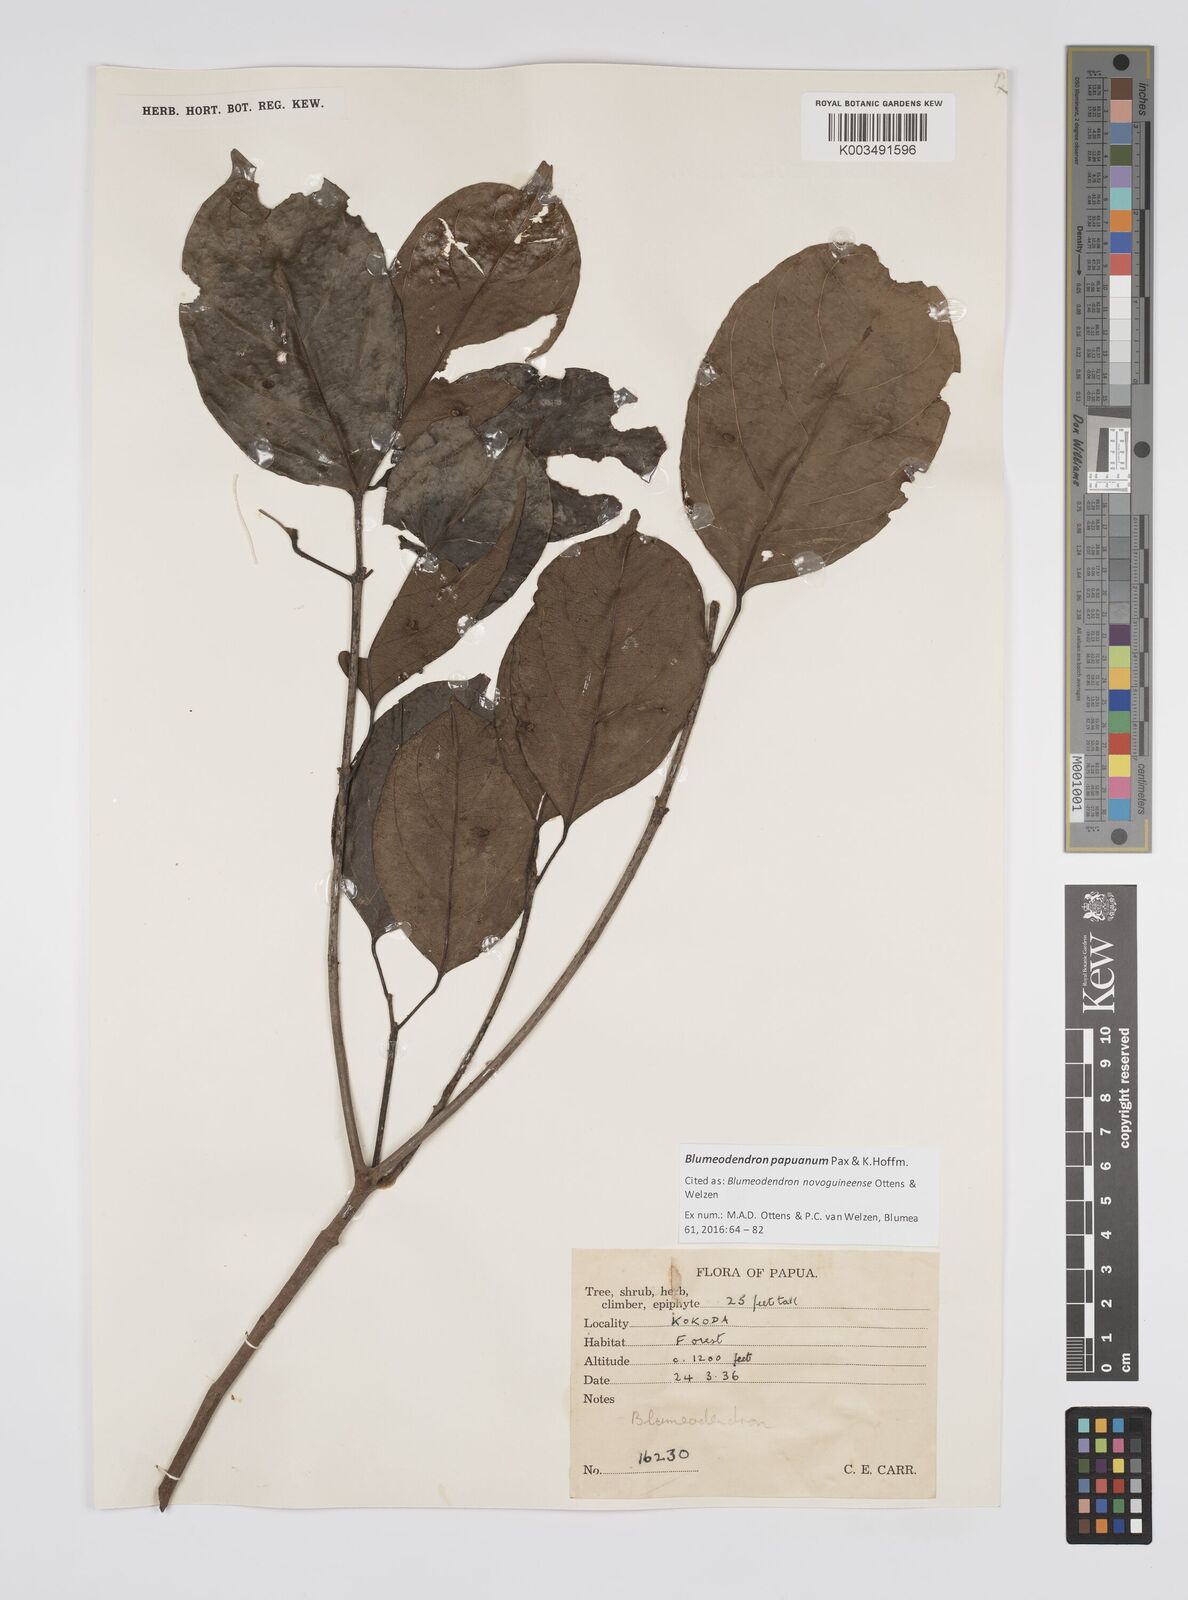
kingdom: Plantae
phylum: Tracheophyta
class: Magnoliopsida
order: Malpighiales
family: Euphorbiaceae
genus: Blumeodendron
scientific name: Blumeodendron papuanum
